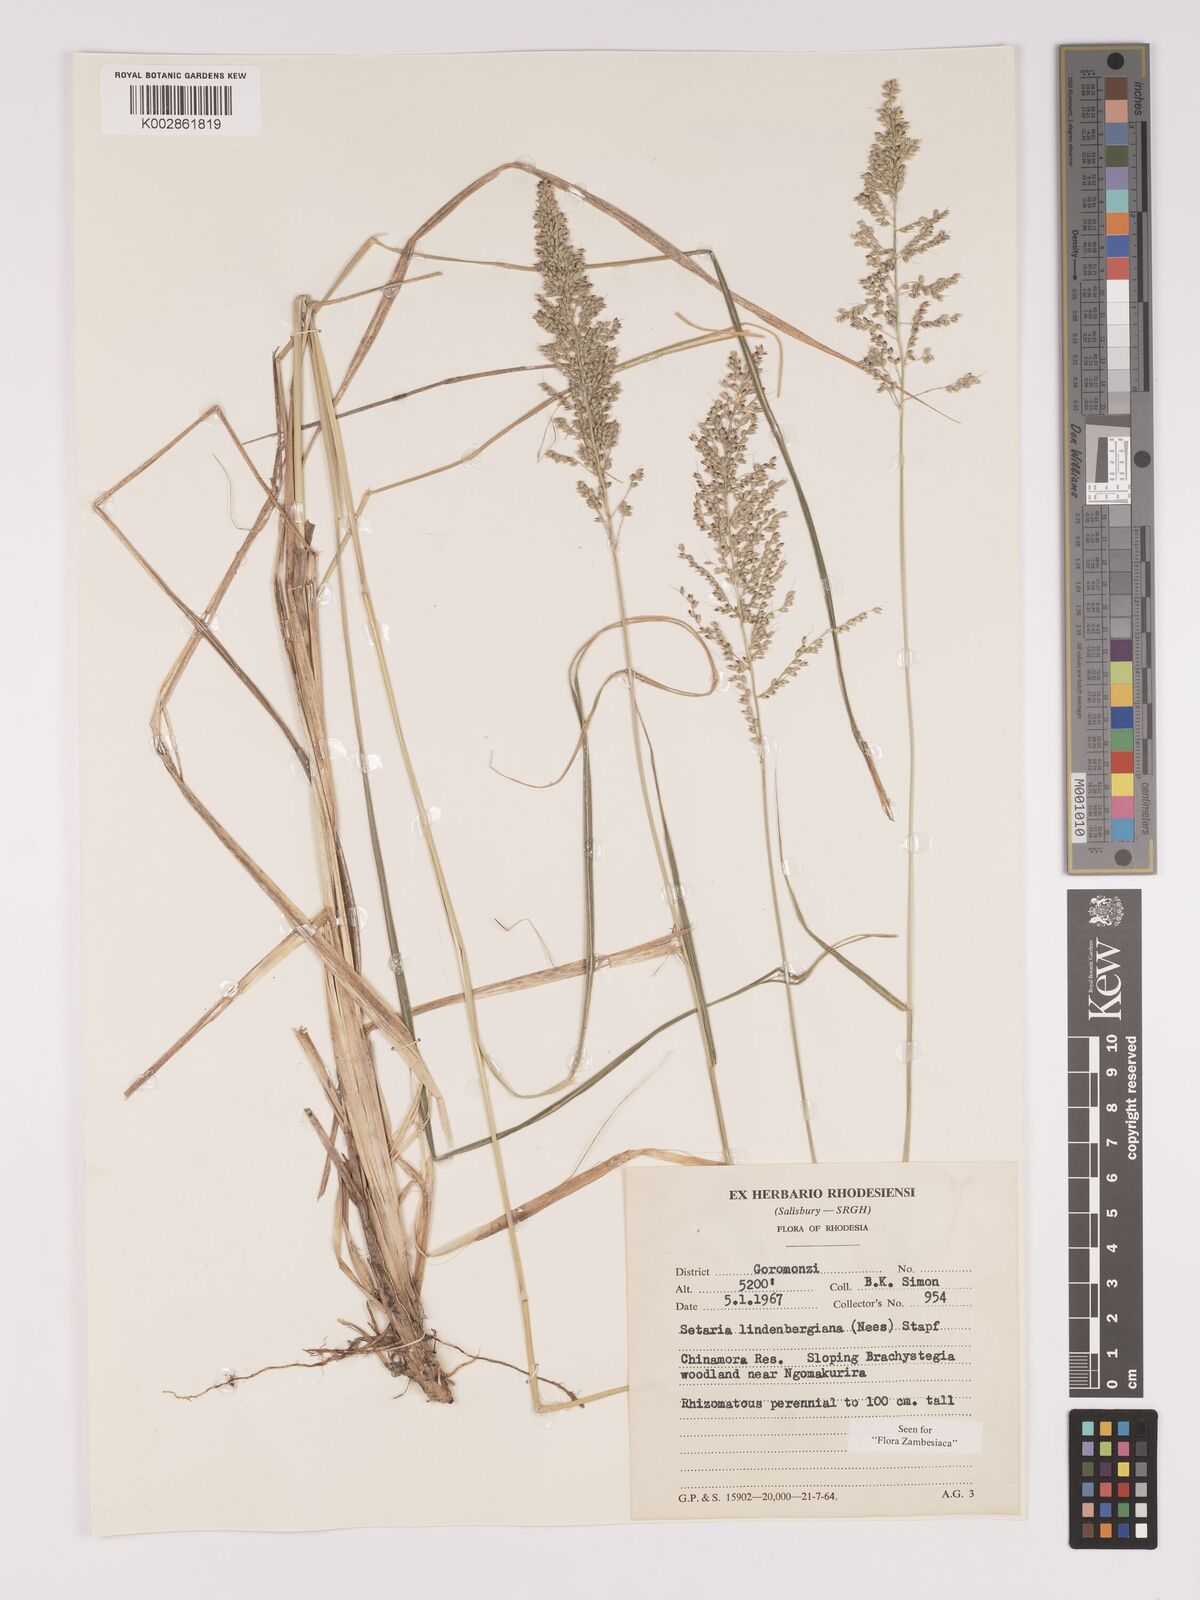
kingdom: Plantae
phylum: Tracheophyta
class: Liliopsida
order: Poales
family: Poaceae
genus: Setaria
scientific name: Setaria lindenbergiana
